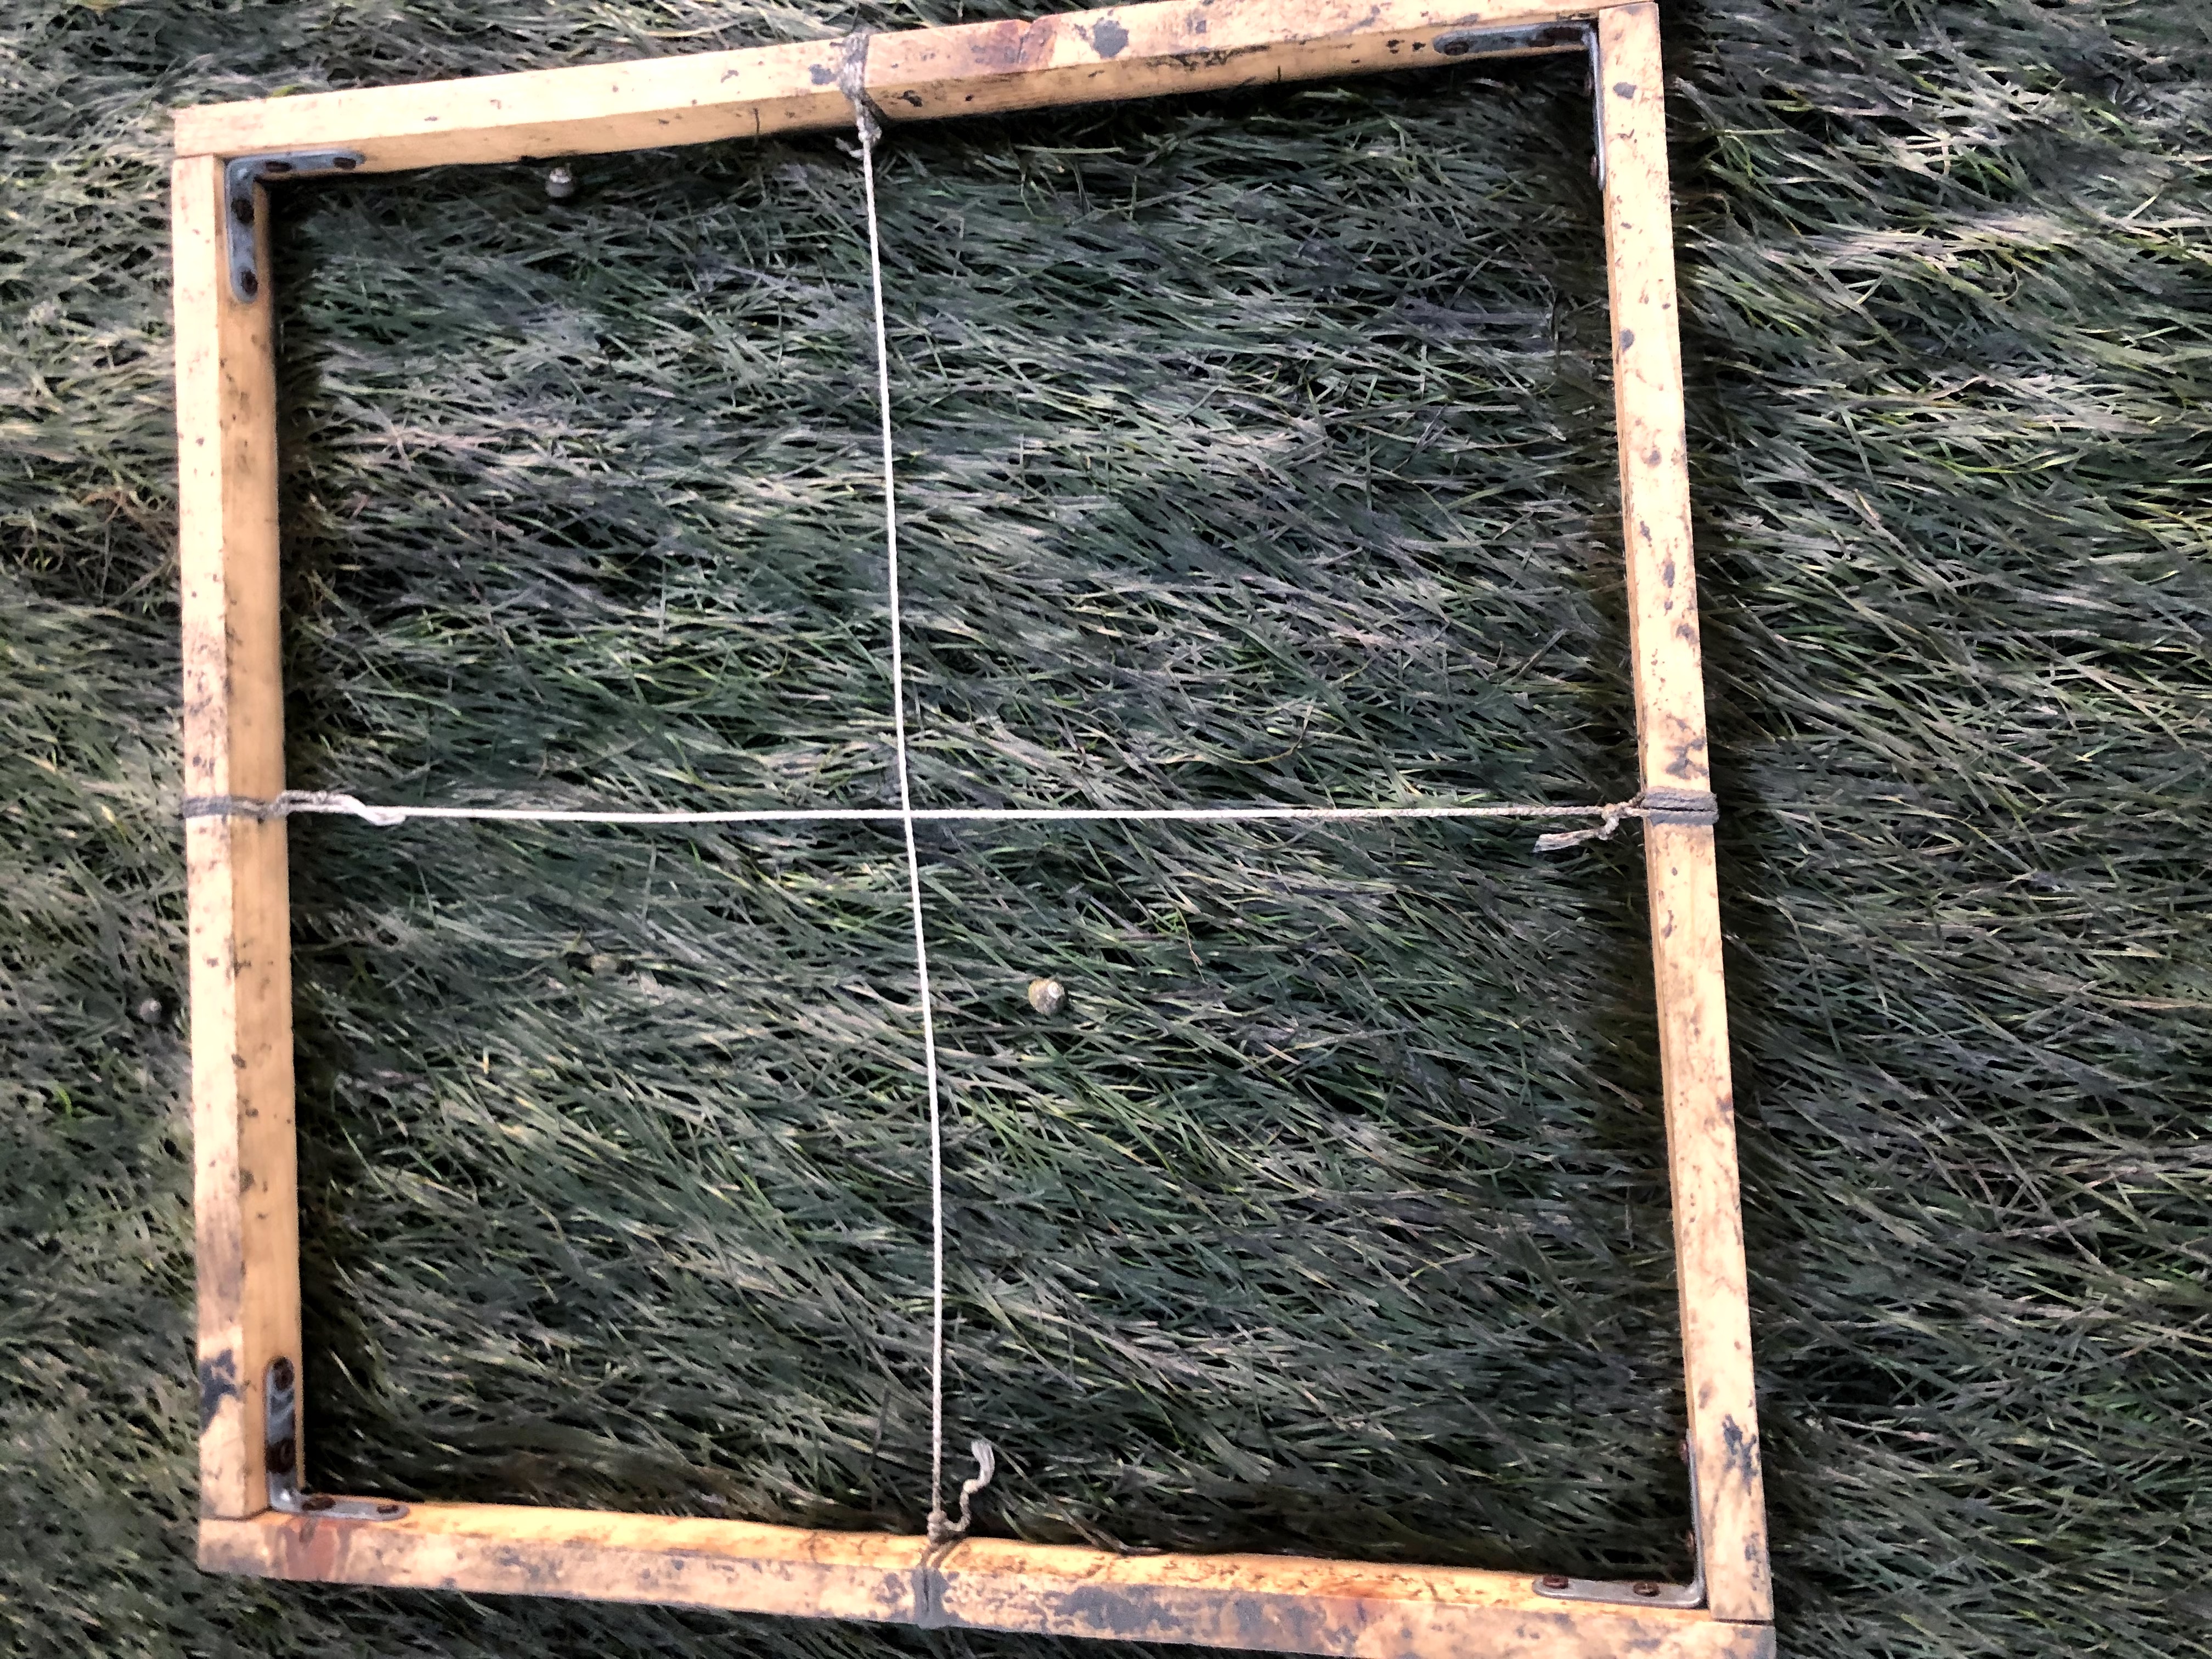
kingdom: Plantae
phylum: Tracheophyta
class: Liliopsida
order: Alismatales
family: Zosteraceae
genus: Zostera
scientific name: Zostera noltii
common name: Dwarf eelgrass
